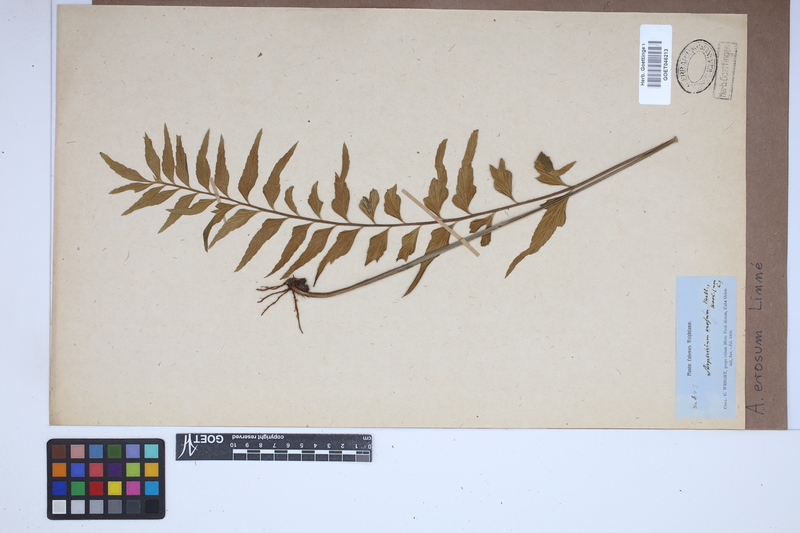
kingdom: Plantae
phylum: Tracheophyta
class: Polypodiopsida
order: Polypodiales
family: Aspleniaceae
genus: Asplenium
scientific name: Asplenium erosum
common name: Eared spleenwort
